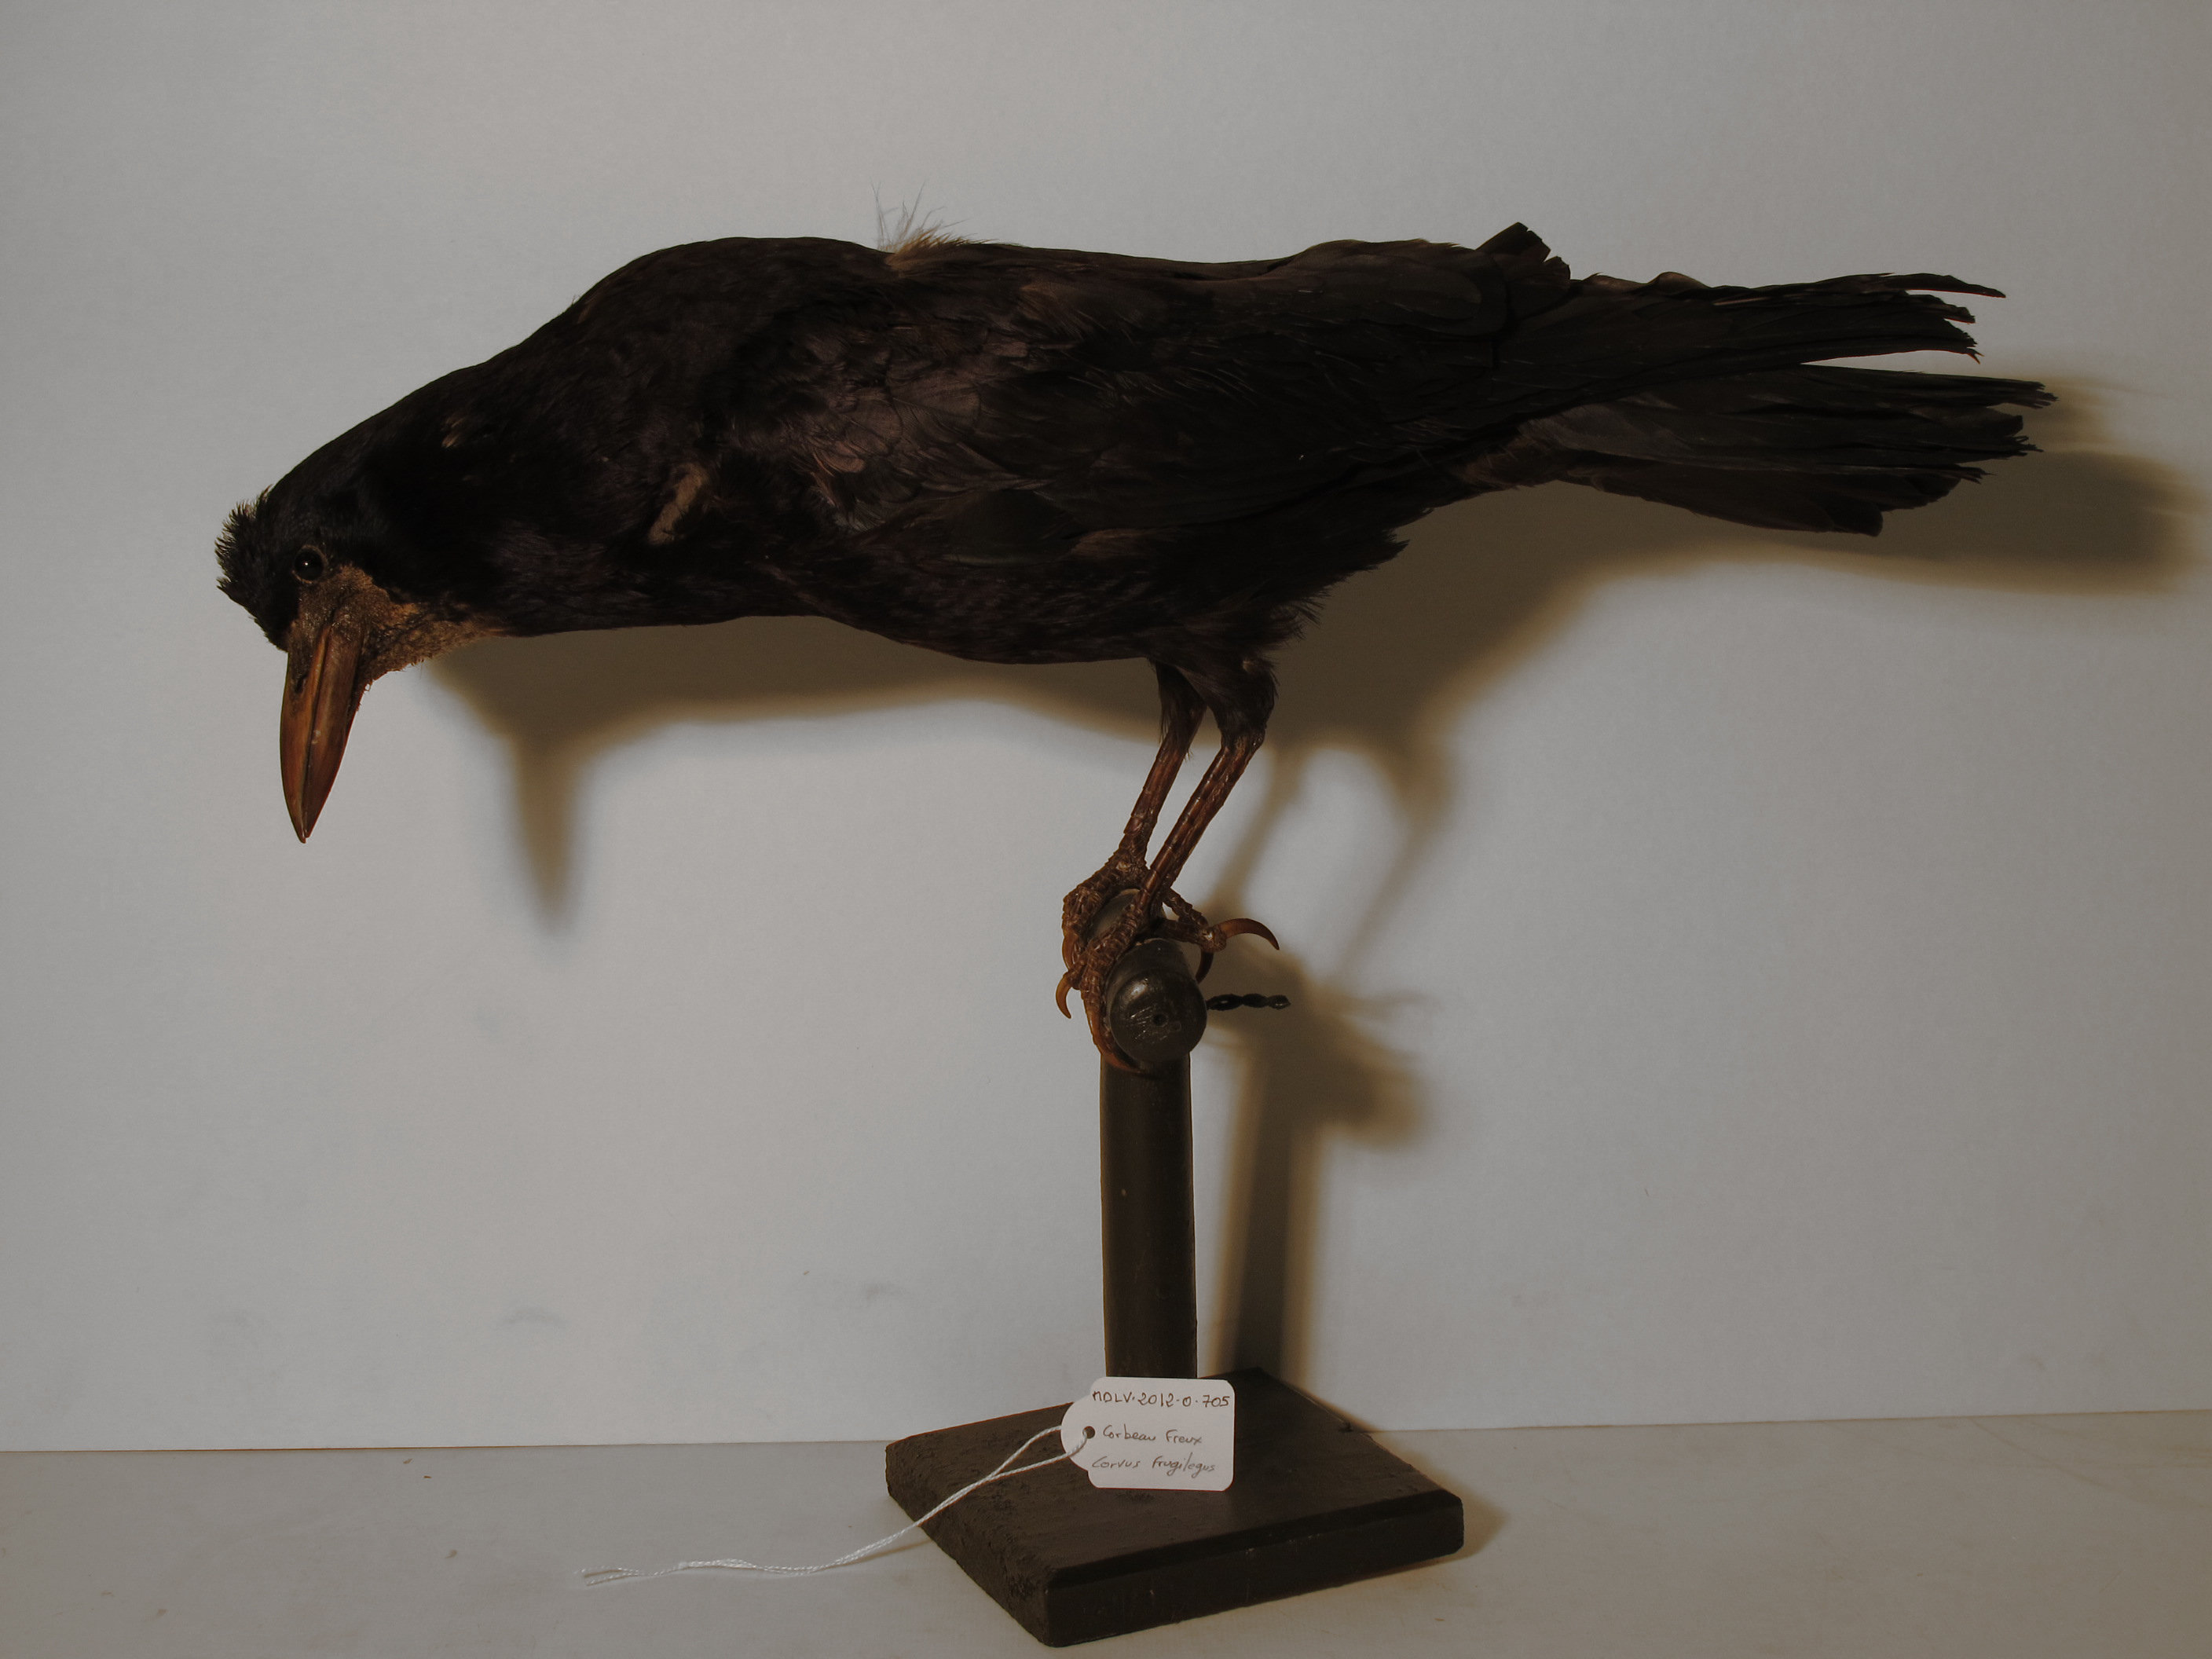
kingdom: Animalia
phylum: Chordata
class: Aves
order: Passeriformes
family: Corvidae
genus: Corvus
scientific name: Corvus frugilegus
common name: Rook
